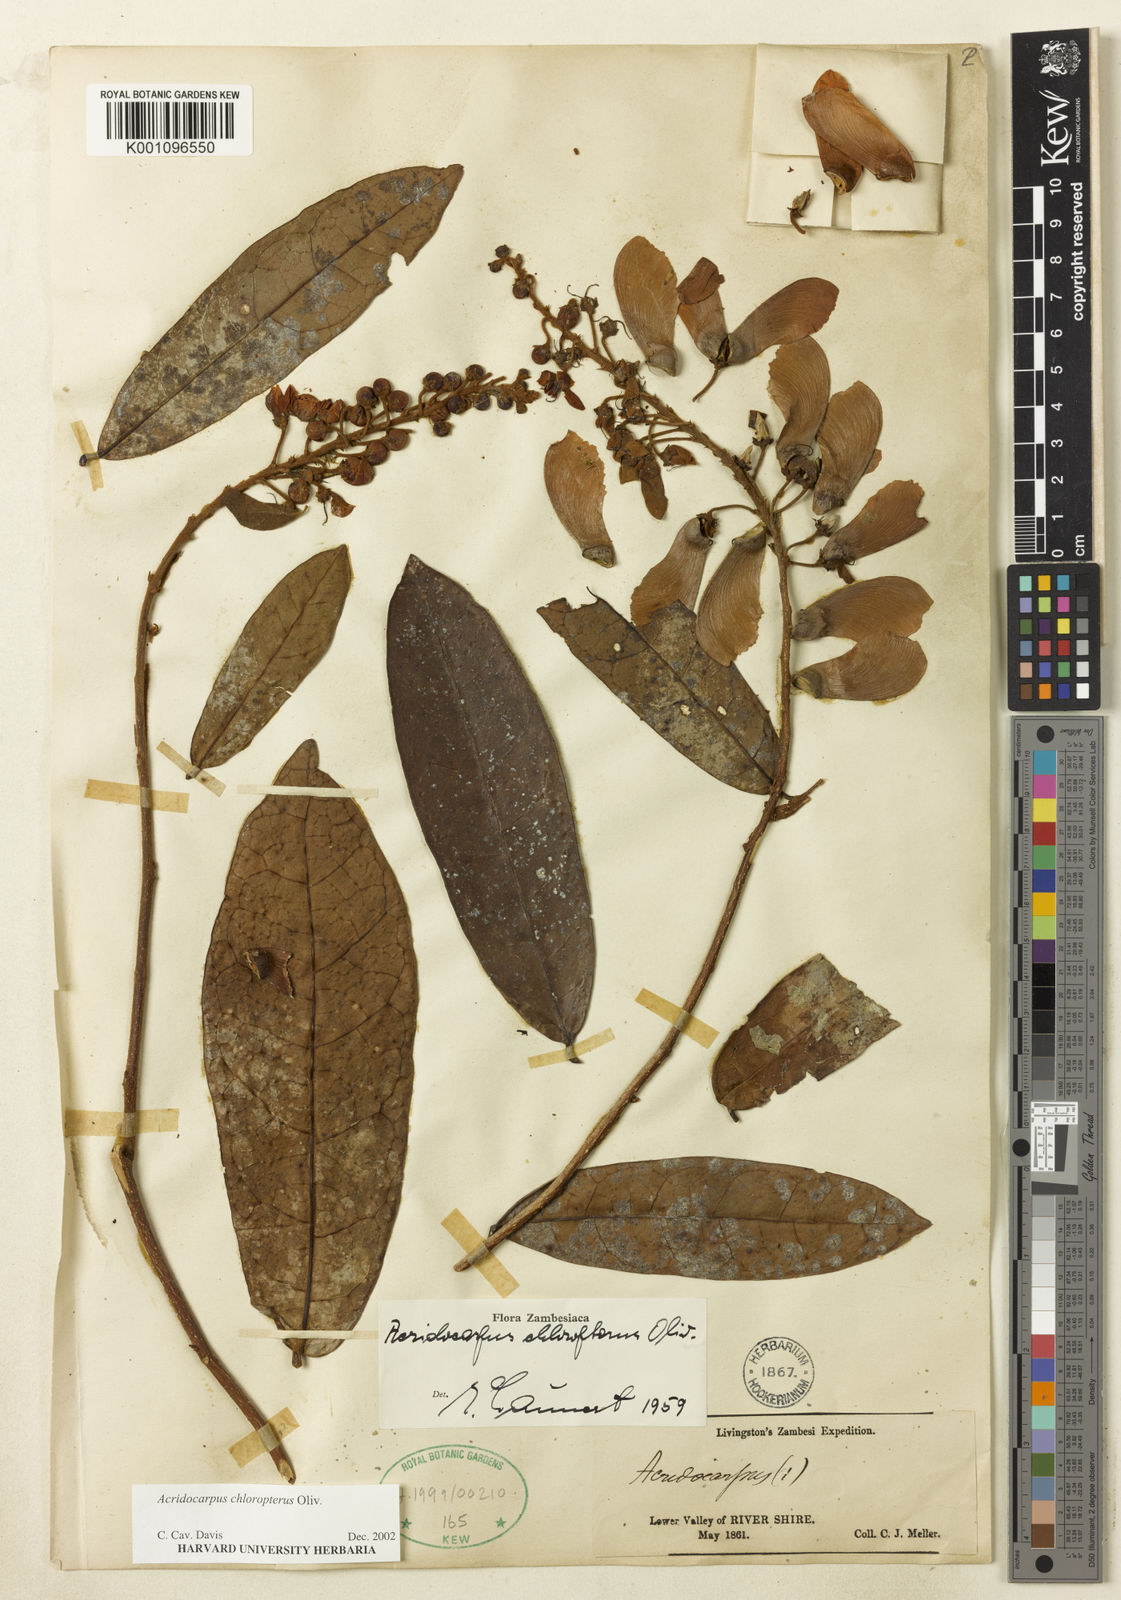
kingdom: Plantae
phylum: Tracheophyta
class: Magnoliopsida
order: Malpighiales
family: Malpighiaceae
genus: Acridocarpus
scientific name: Acridocarpus chloropterus
